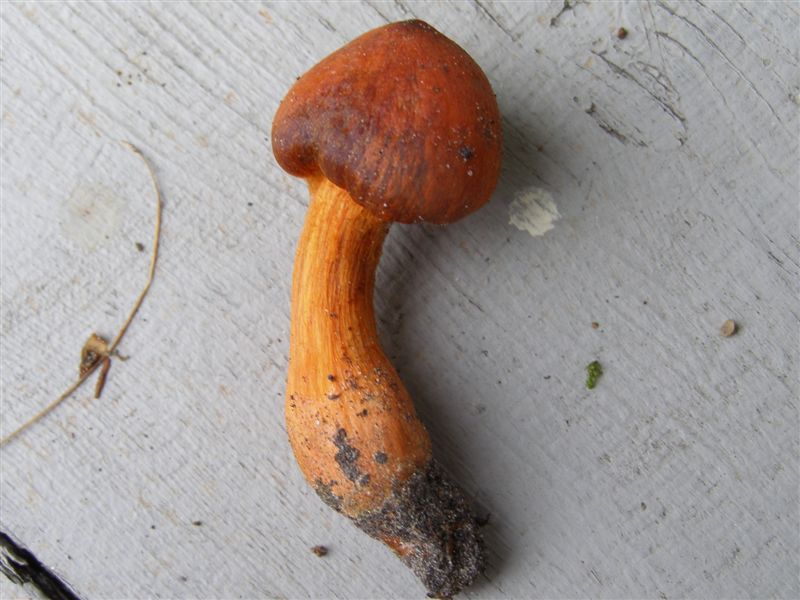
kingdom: Fungi
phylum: Basidiomycota
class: Agaricomycetes
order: Agaricales
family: Cortinariaceae
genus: Cortinarius
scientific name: Cortinarius cinnabarinus
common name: cinnober-slørhat
